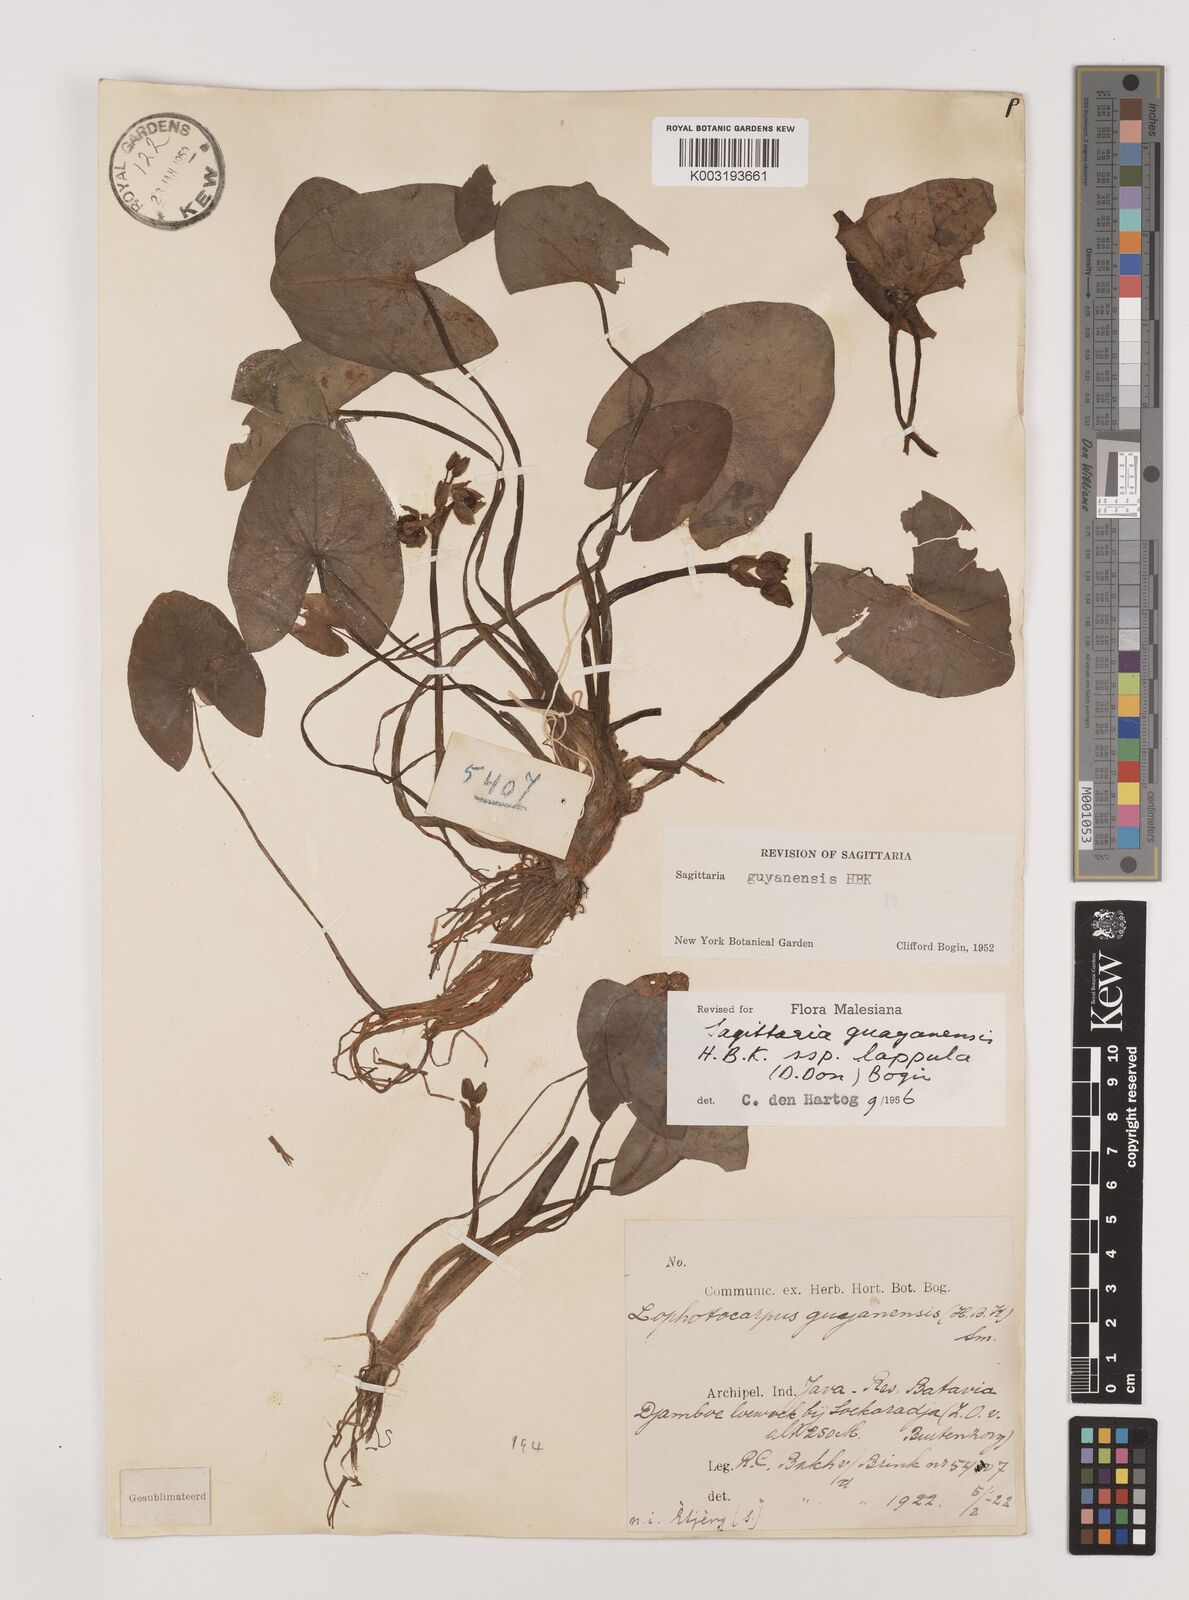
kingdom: Plantae
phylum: Tracheophyta
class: Liliopsida
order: Alismatales
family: Alismataceae
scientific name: Alismataceae
